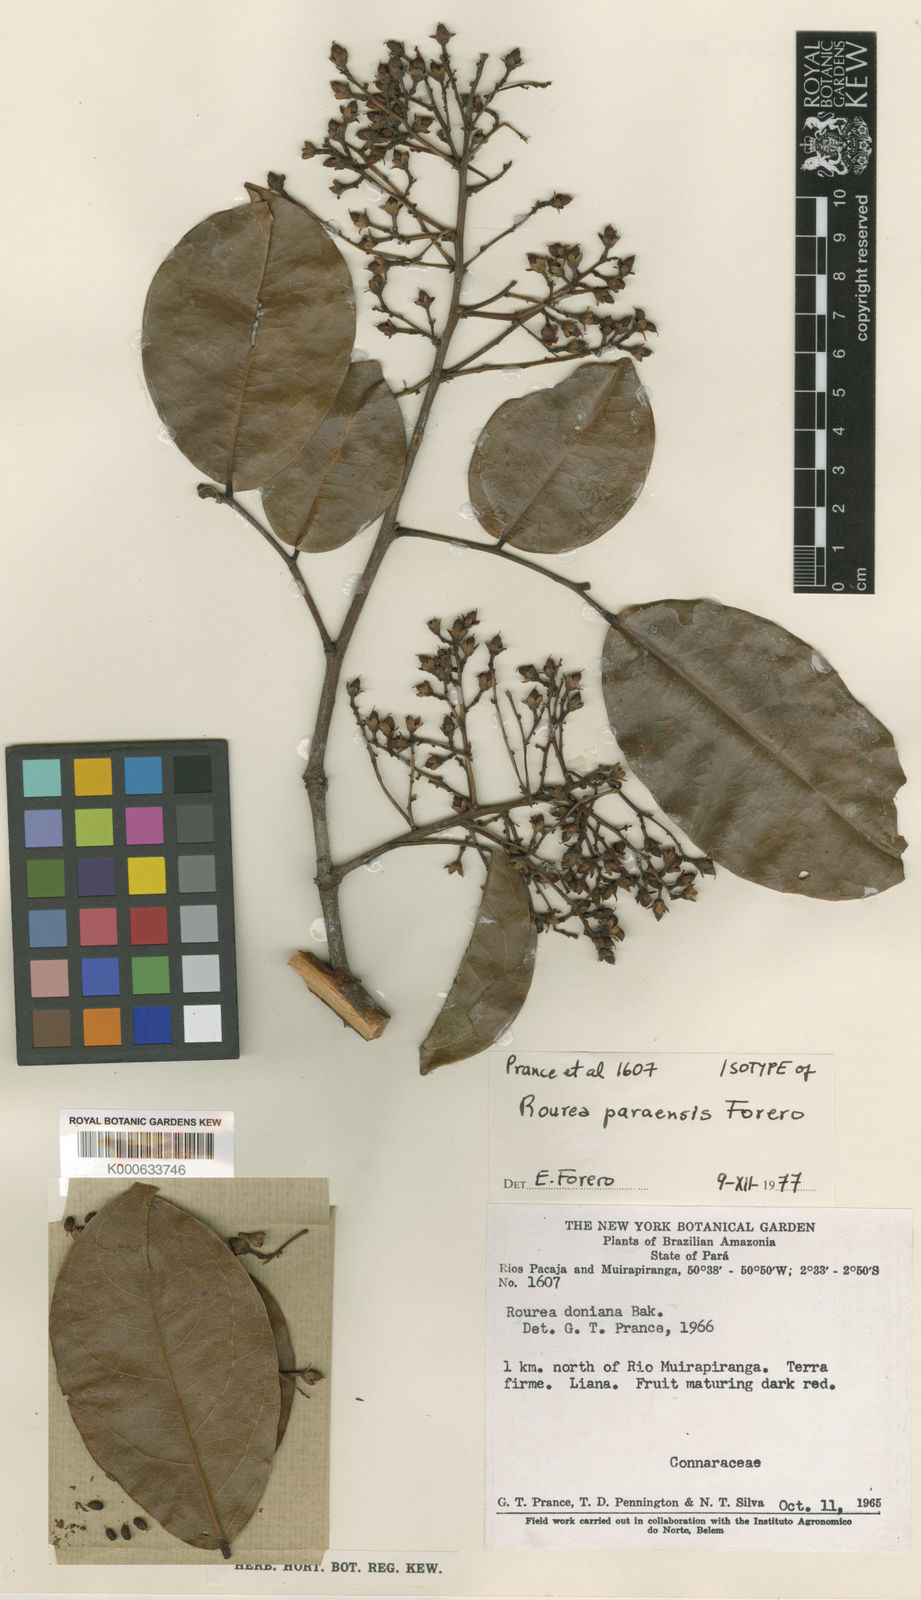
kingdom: Plantae
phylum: Tracheophyta
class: Magnoliopsida
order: Oxalidales
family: Connaraceae
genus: Rourea
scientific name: Rourea paraensis
